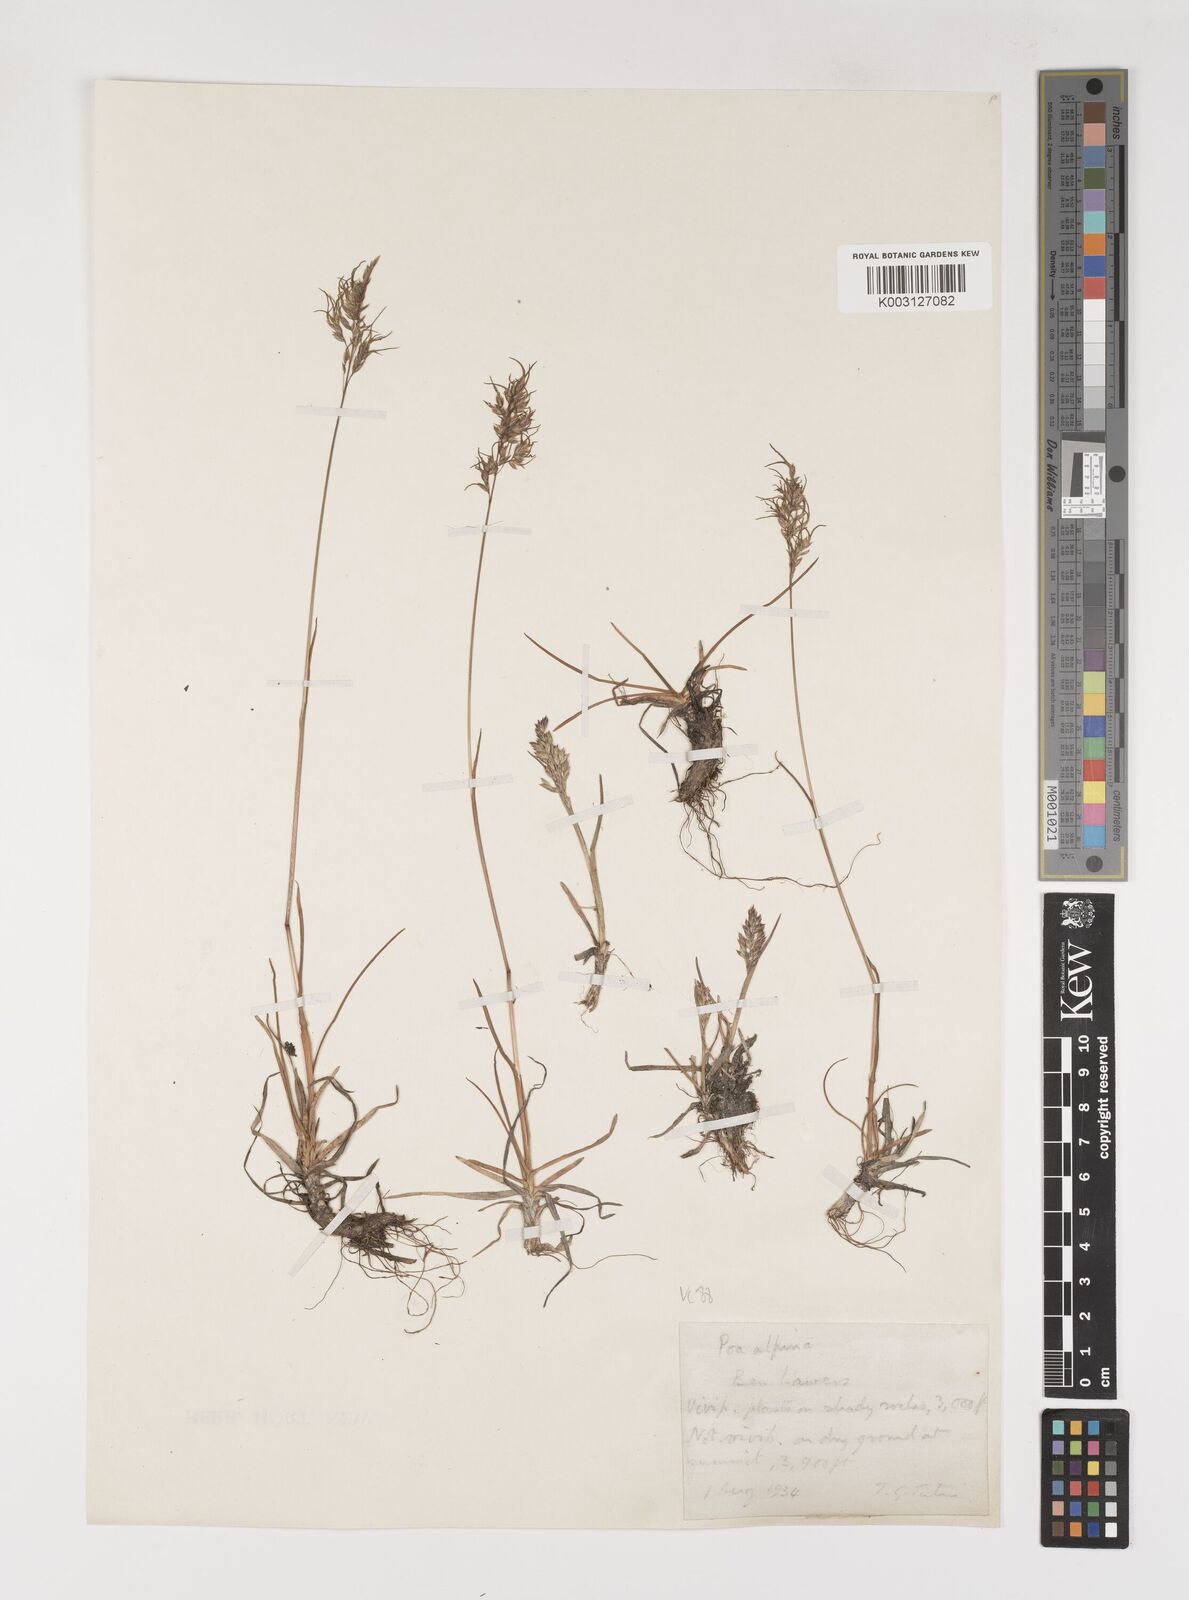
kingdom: Plantae
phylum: Tracheophyta
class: Liliopsida
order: Poales
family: Poaceae
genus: Poa
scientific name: Poa alpina
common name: Alpine bluegrass
